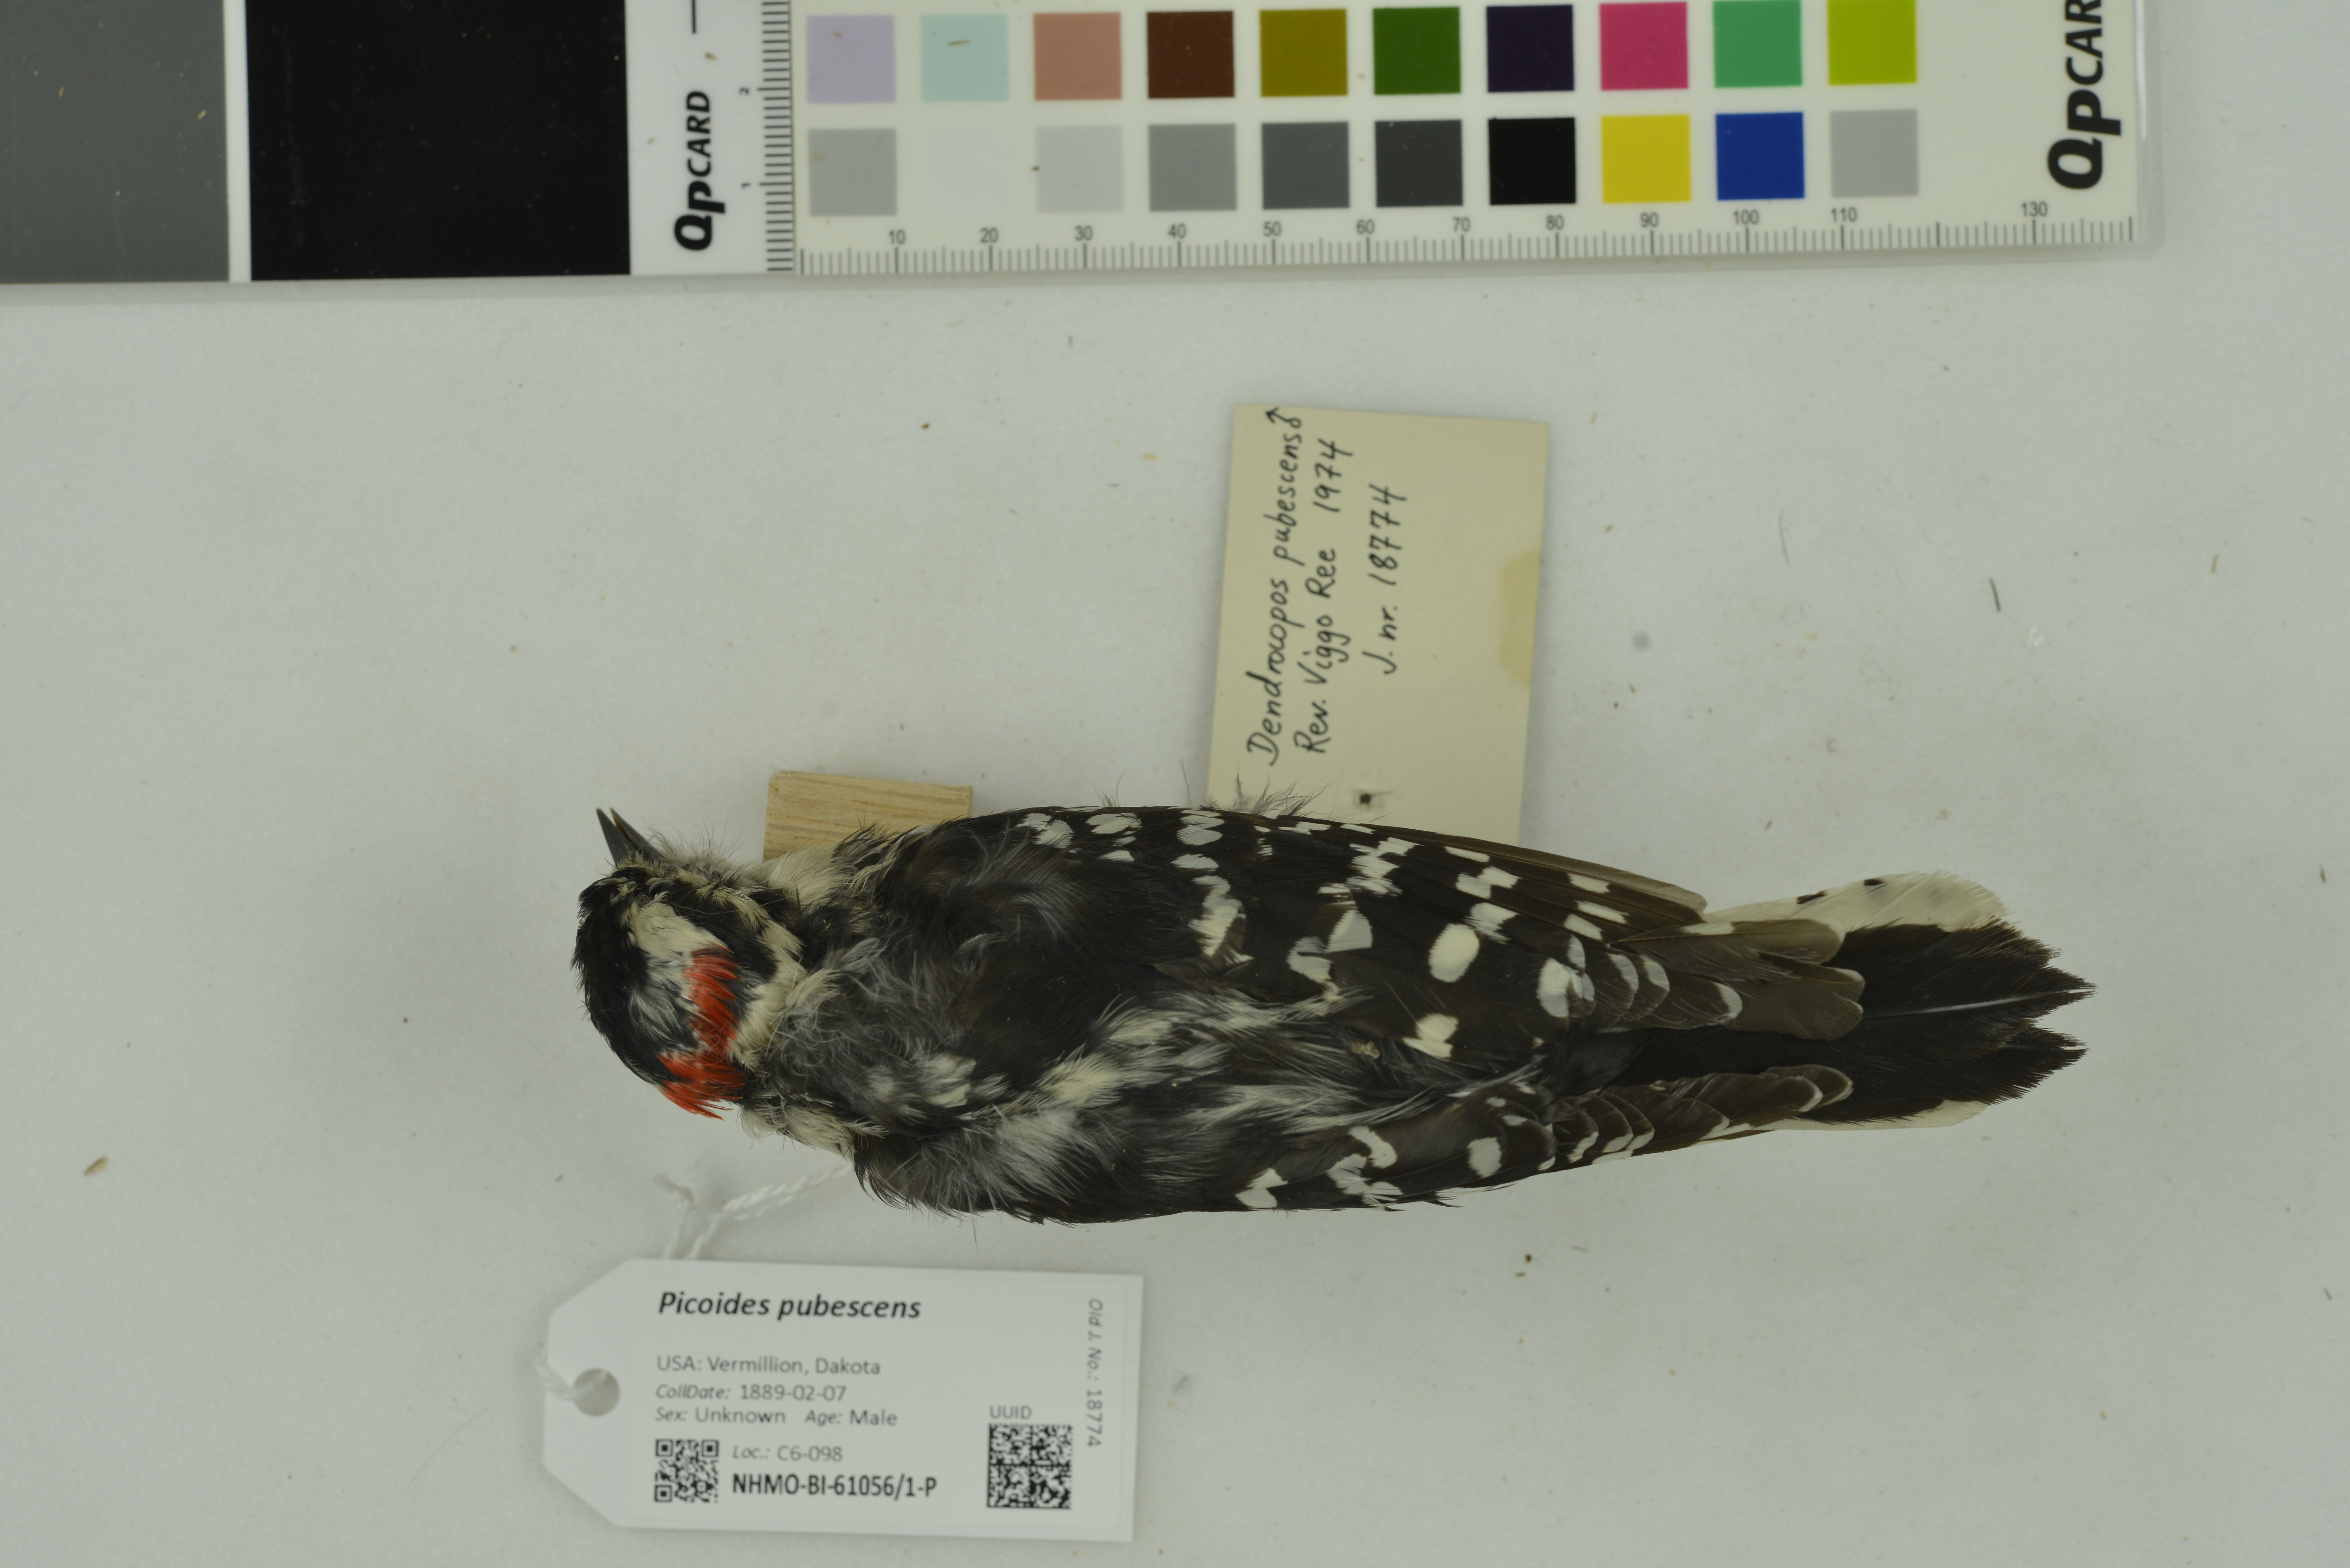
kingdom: Animalia
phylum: Chordata
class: Aves
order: Piciformes
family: Picidae
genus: Dryobates
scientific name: Dryobates pubescens
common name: Downy woodpecker
